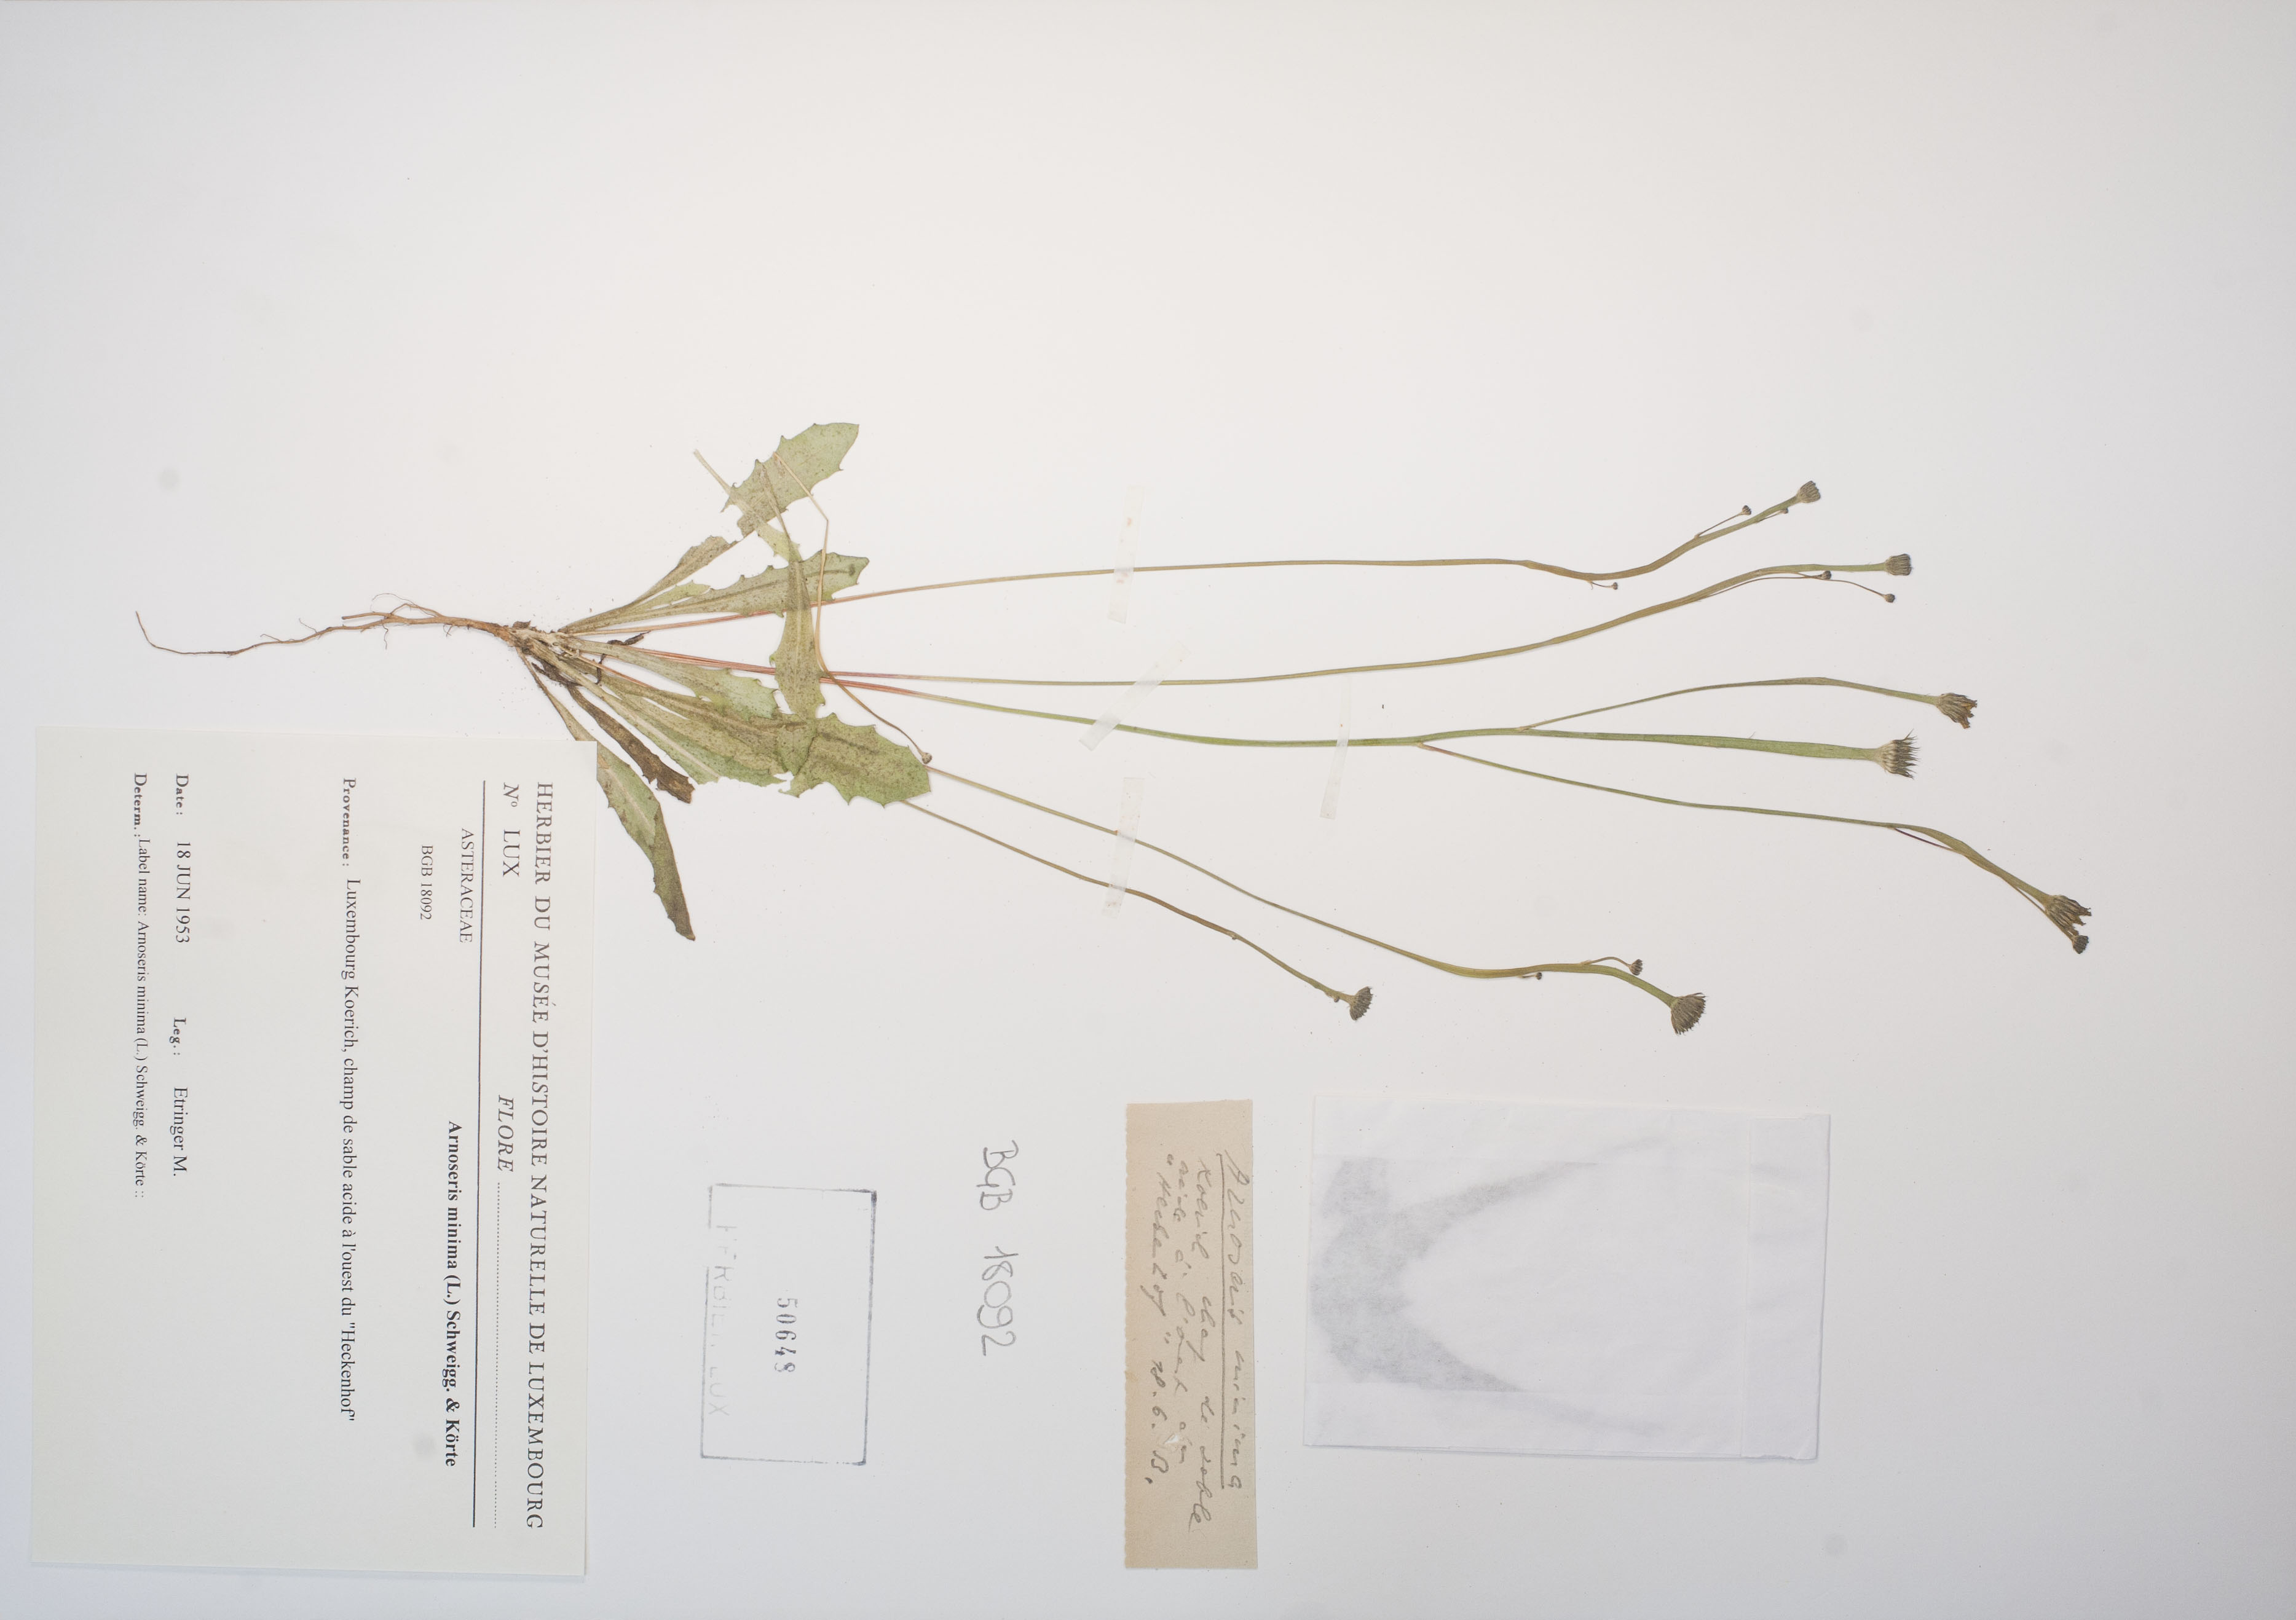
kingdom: Plantae
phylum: Tracheophyta
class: Magnoliopsida
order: Asterales
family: Asteraceae
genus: Arnoseris
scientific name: Arnoseris minima
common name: Lamb's succory
